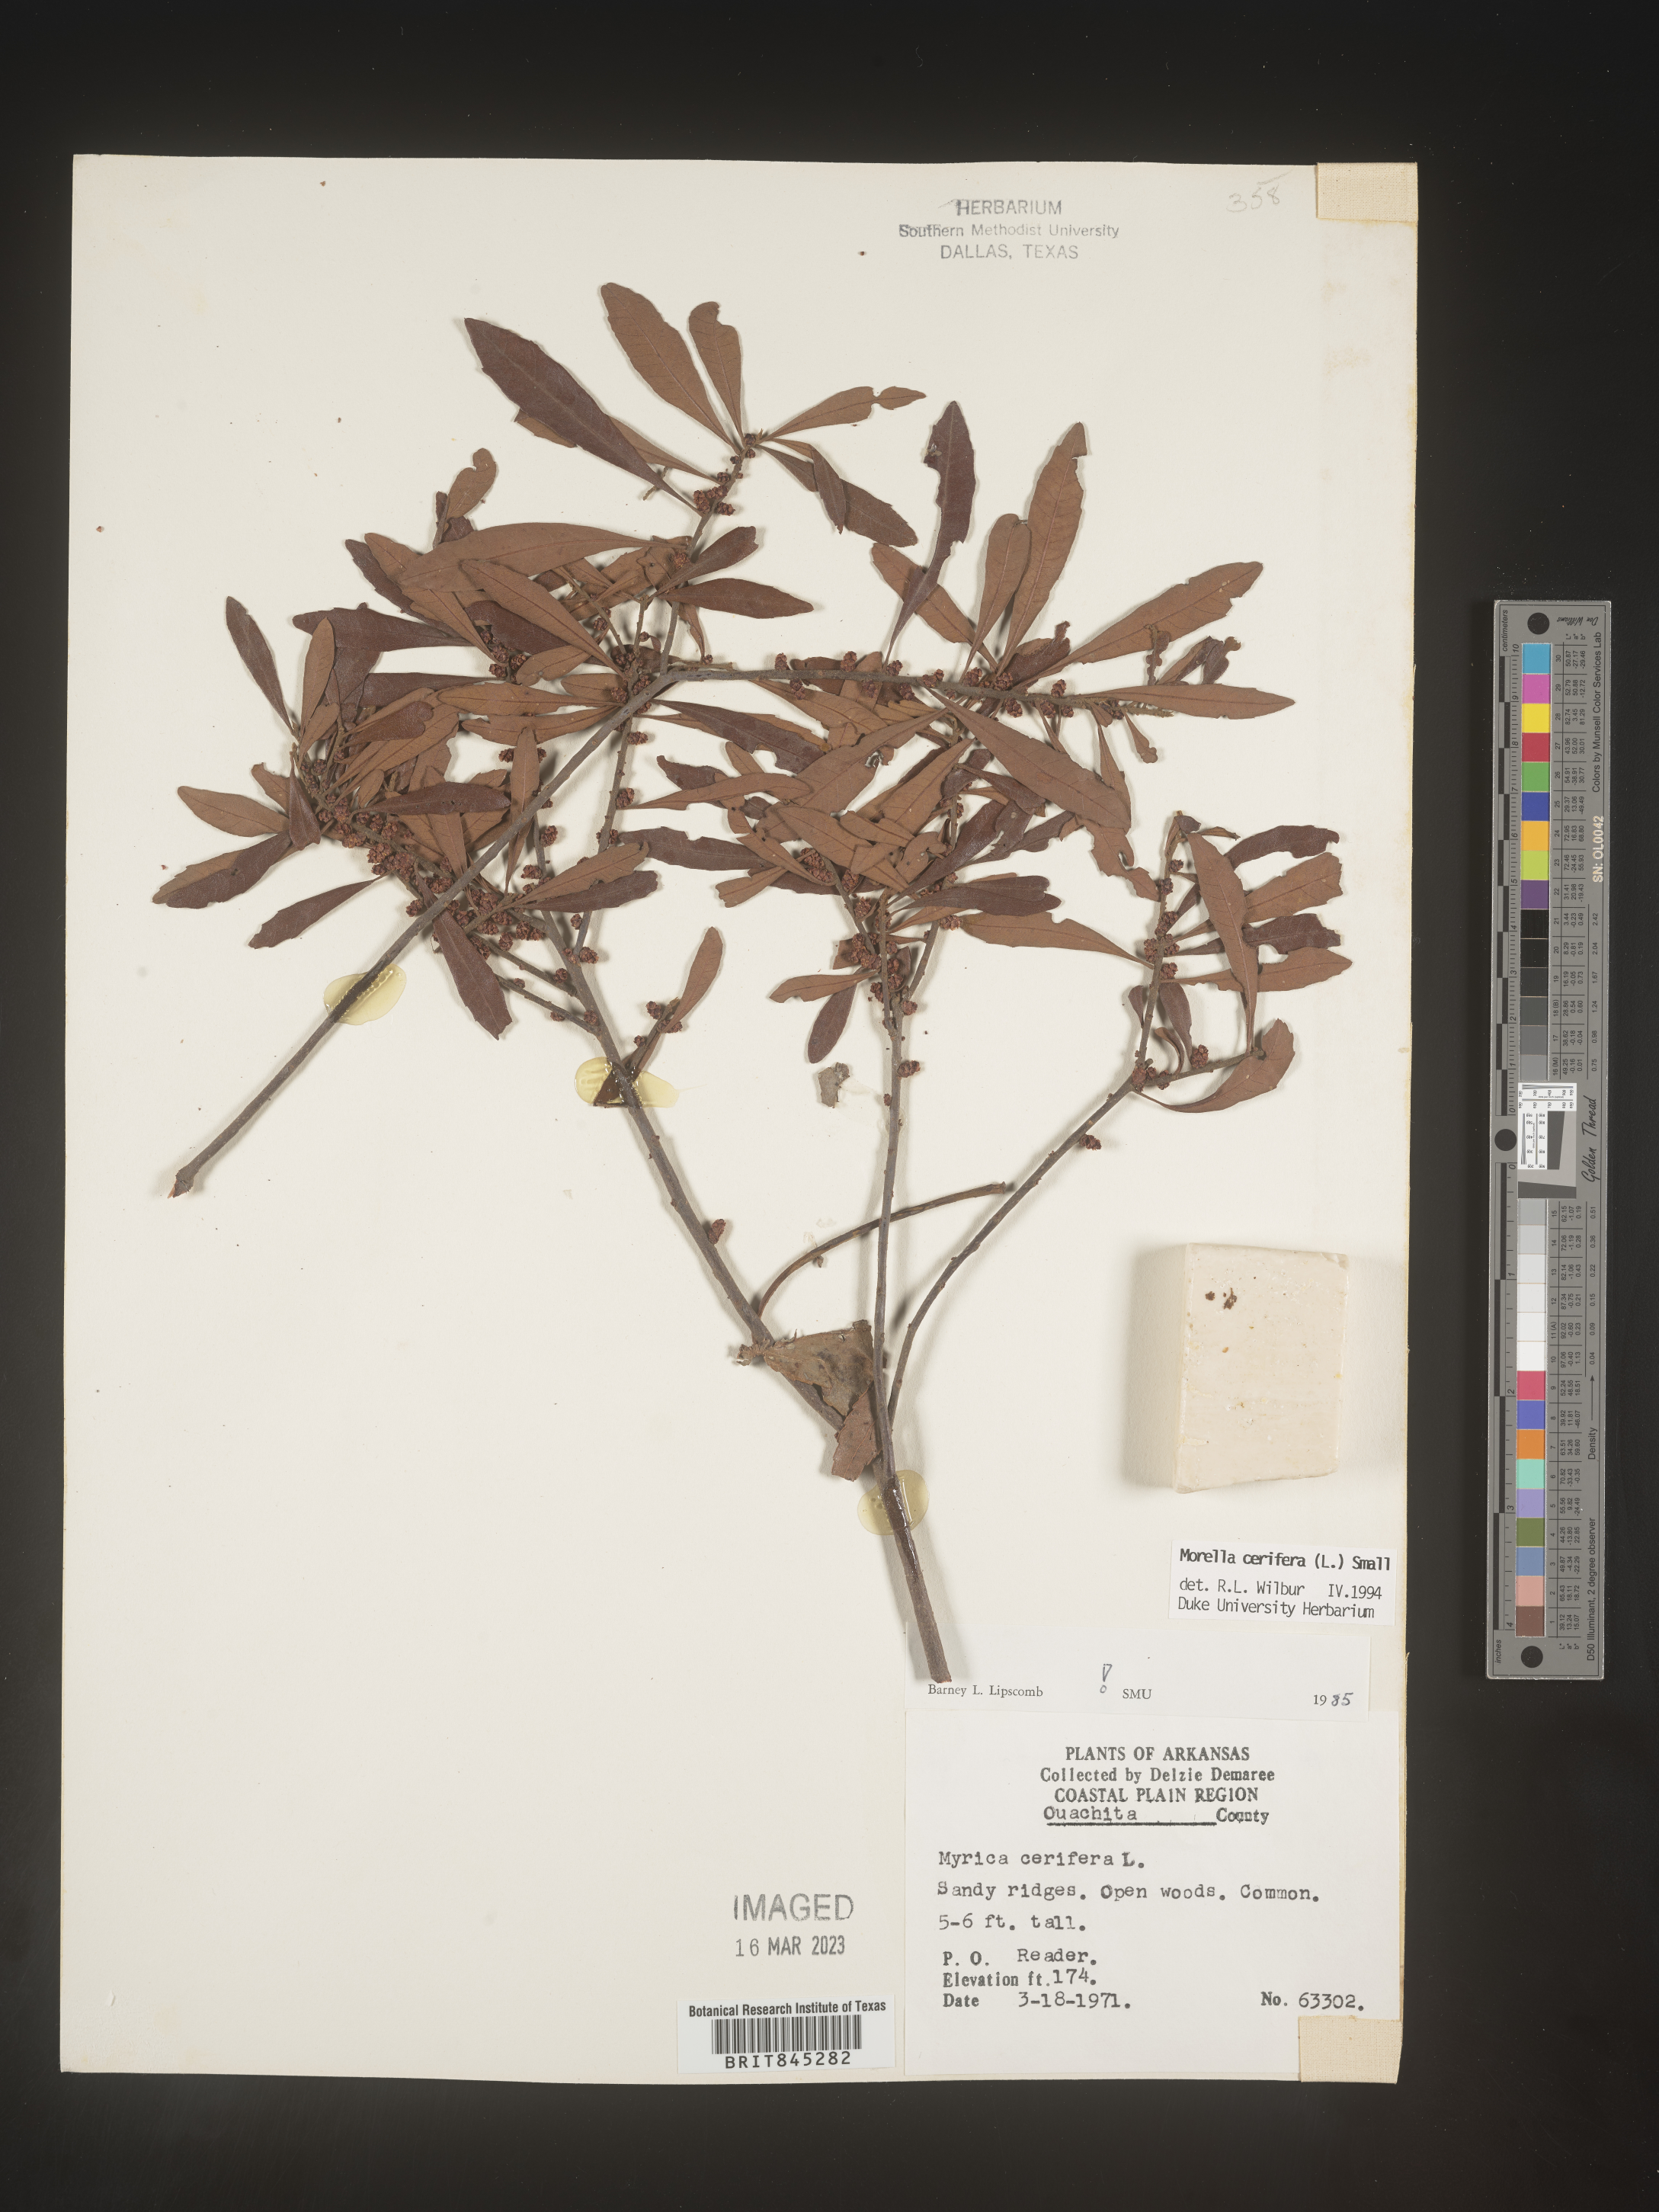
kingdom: Plantae
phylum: Tracheophyta
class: Magnoliopsida
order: Fagales
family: Myricaceae
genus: Morella
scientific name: Morella cerifera
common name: Wax myrtle
